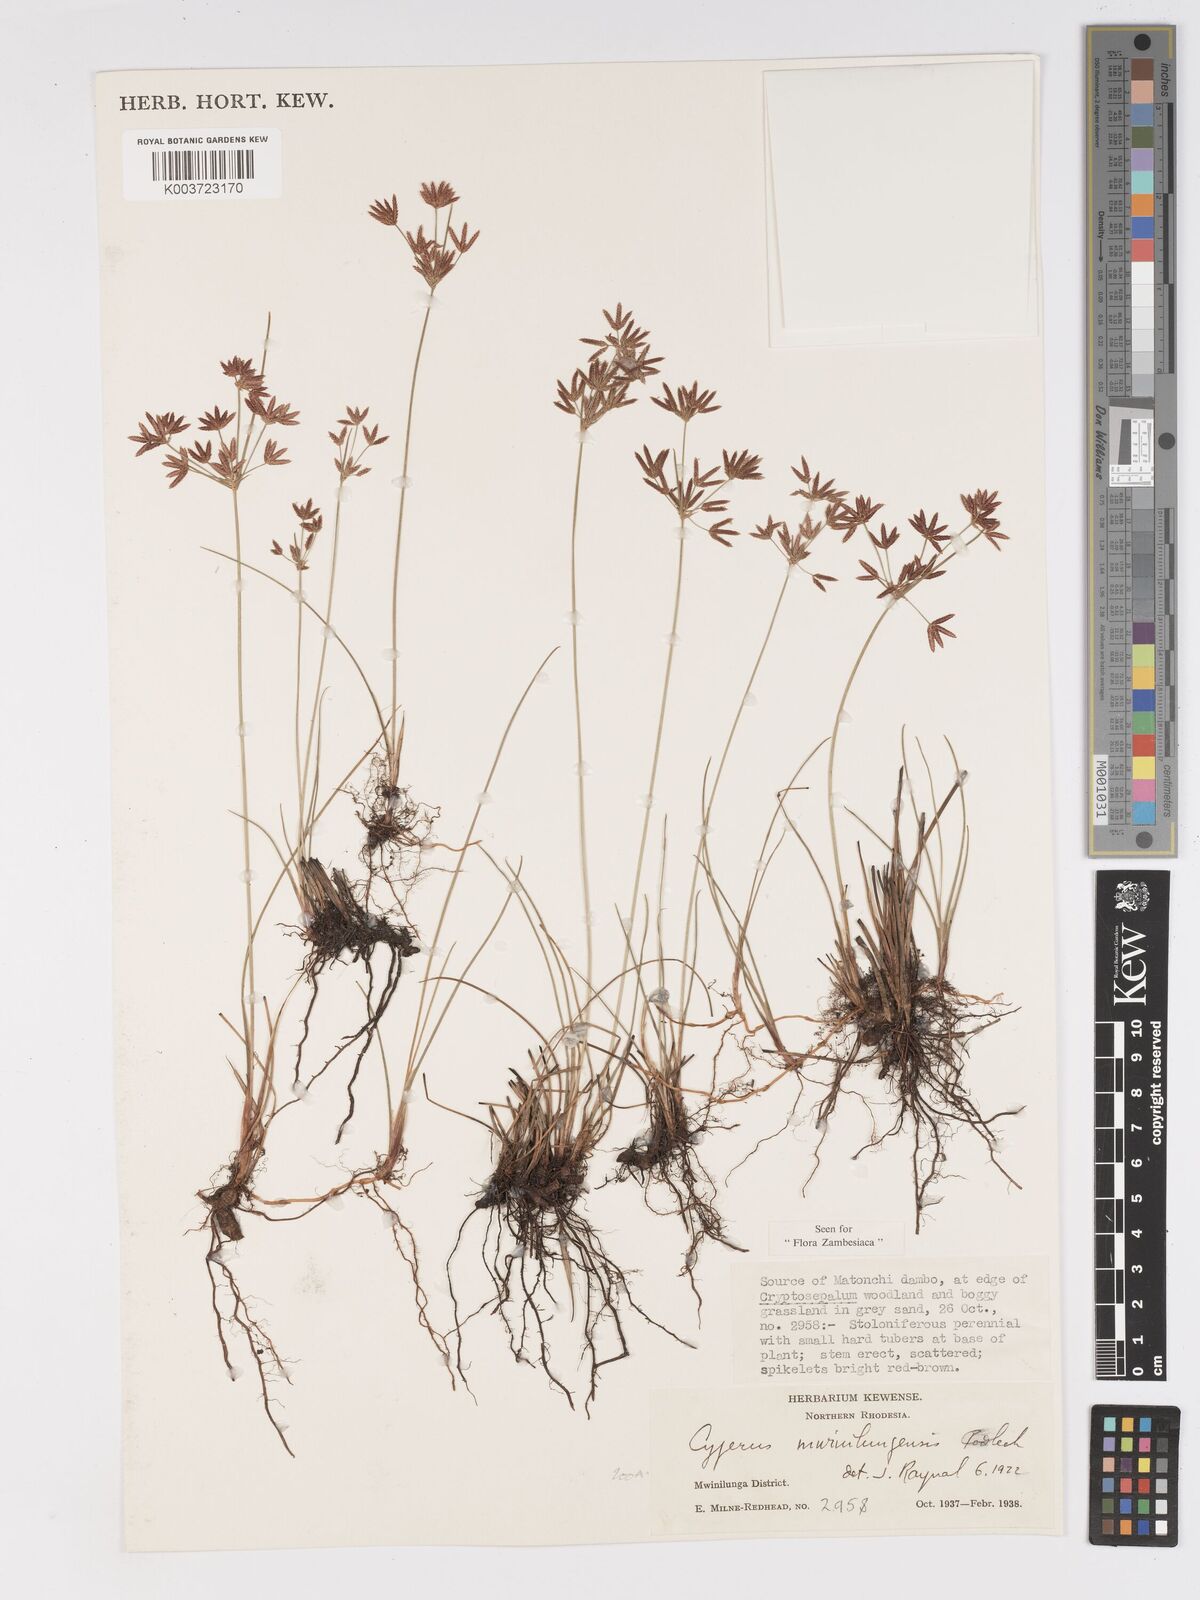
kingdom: Plantae
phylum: Tracheophyta
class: Liliopsida
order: Poales
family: Cyperaceae
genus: Cyperus
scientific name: Cyperus mwinilungensis
